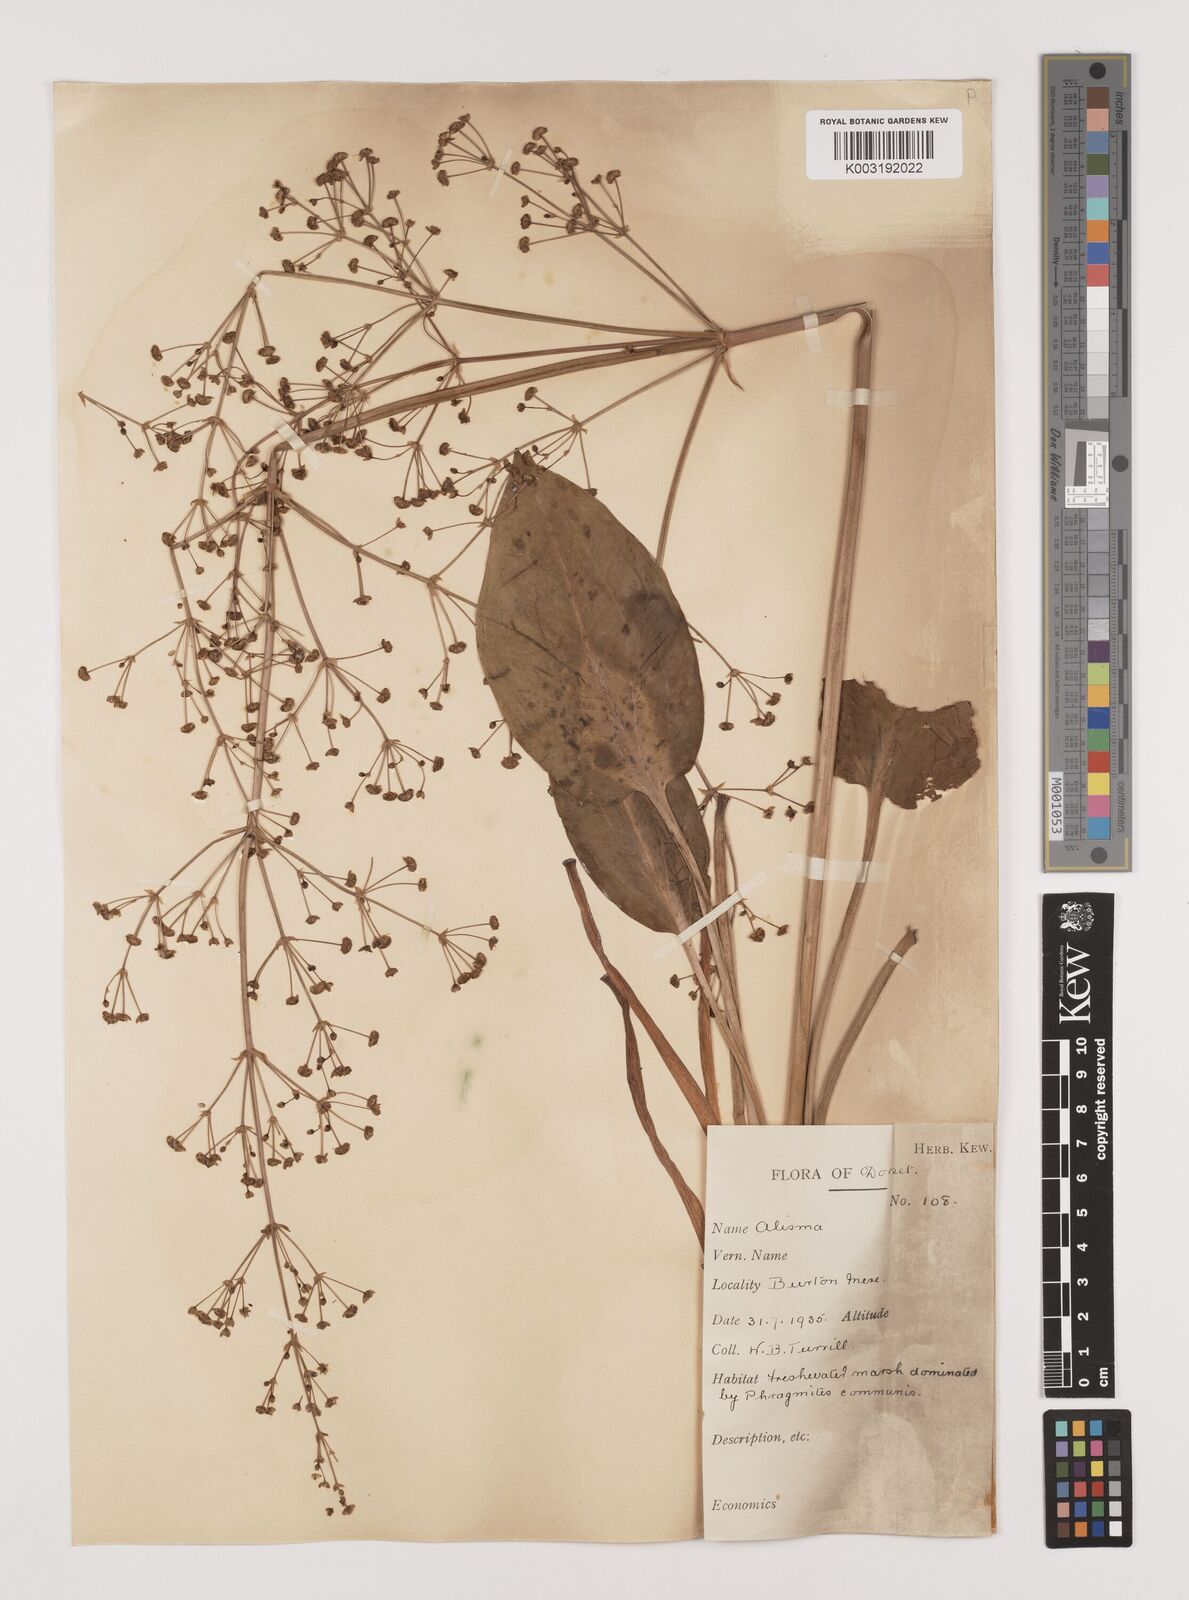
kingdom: Plantae
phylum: Tracheophyta
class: Liliopsida
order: Alismatales
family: Alismataceae
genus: Alisma
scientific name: Alisma plantago-aquatica
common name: Water-plantain
